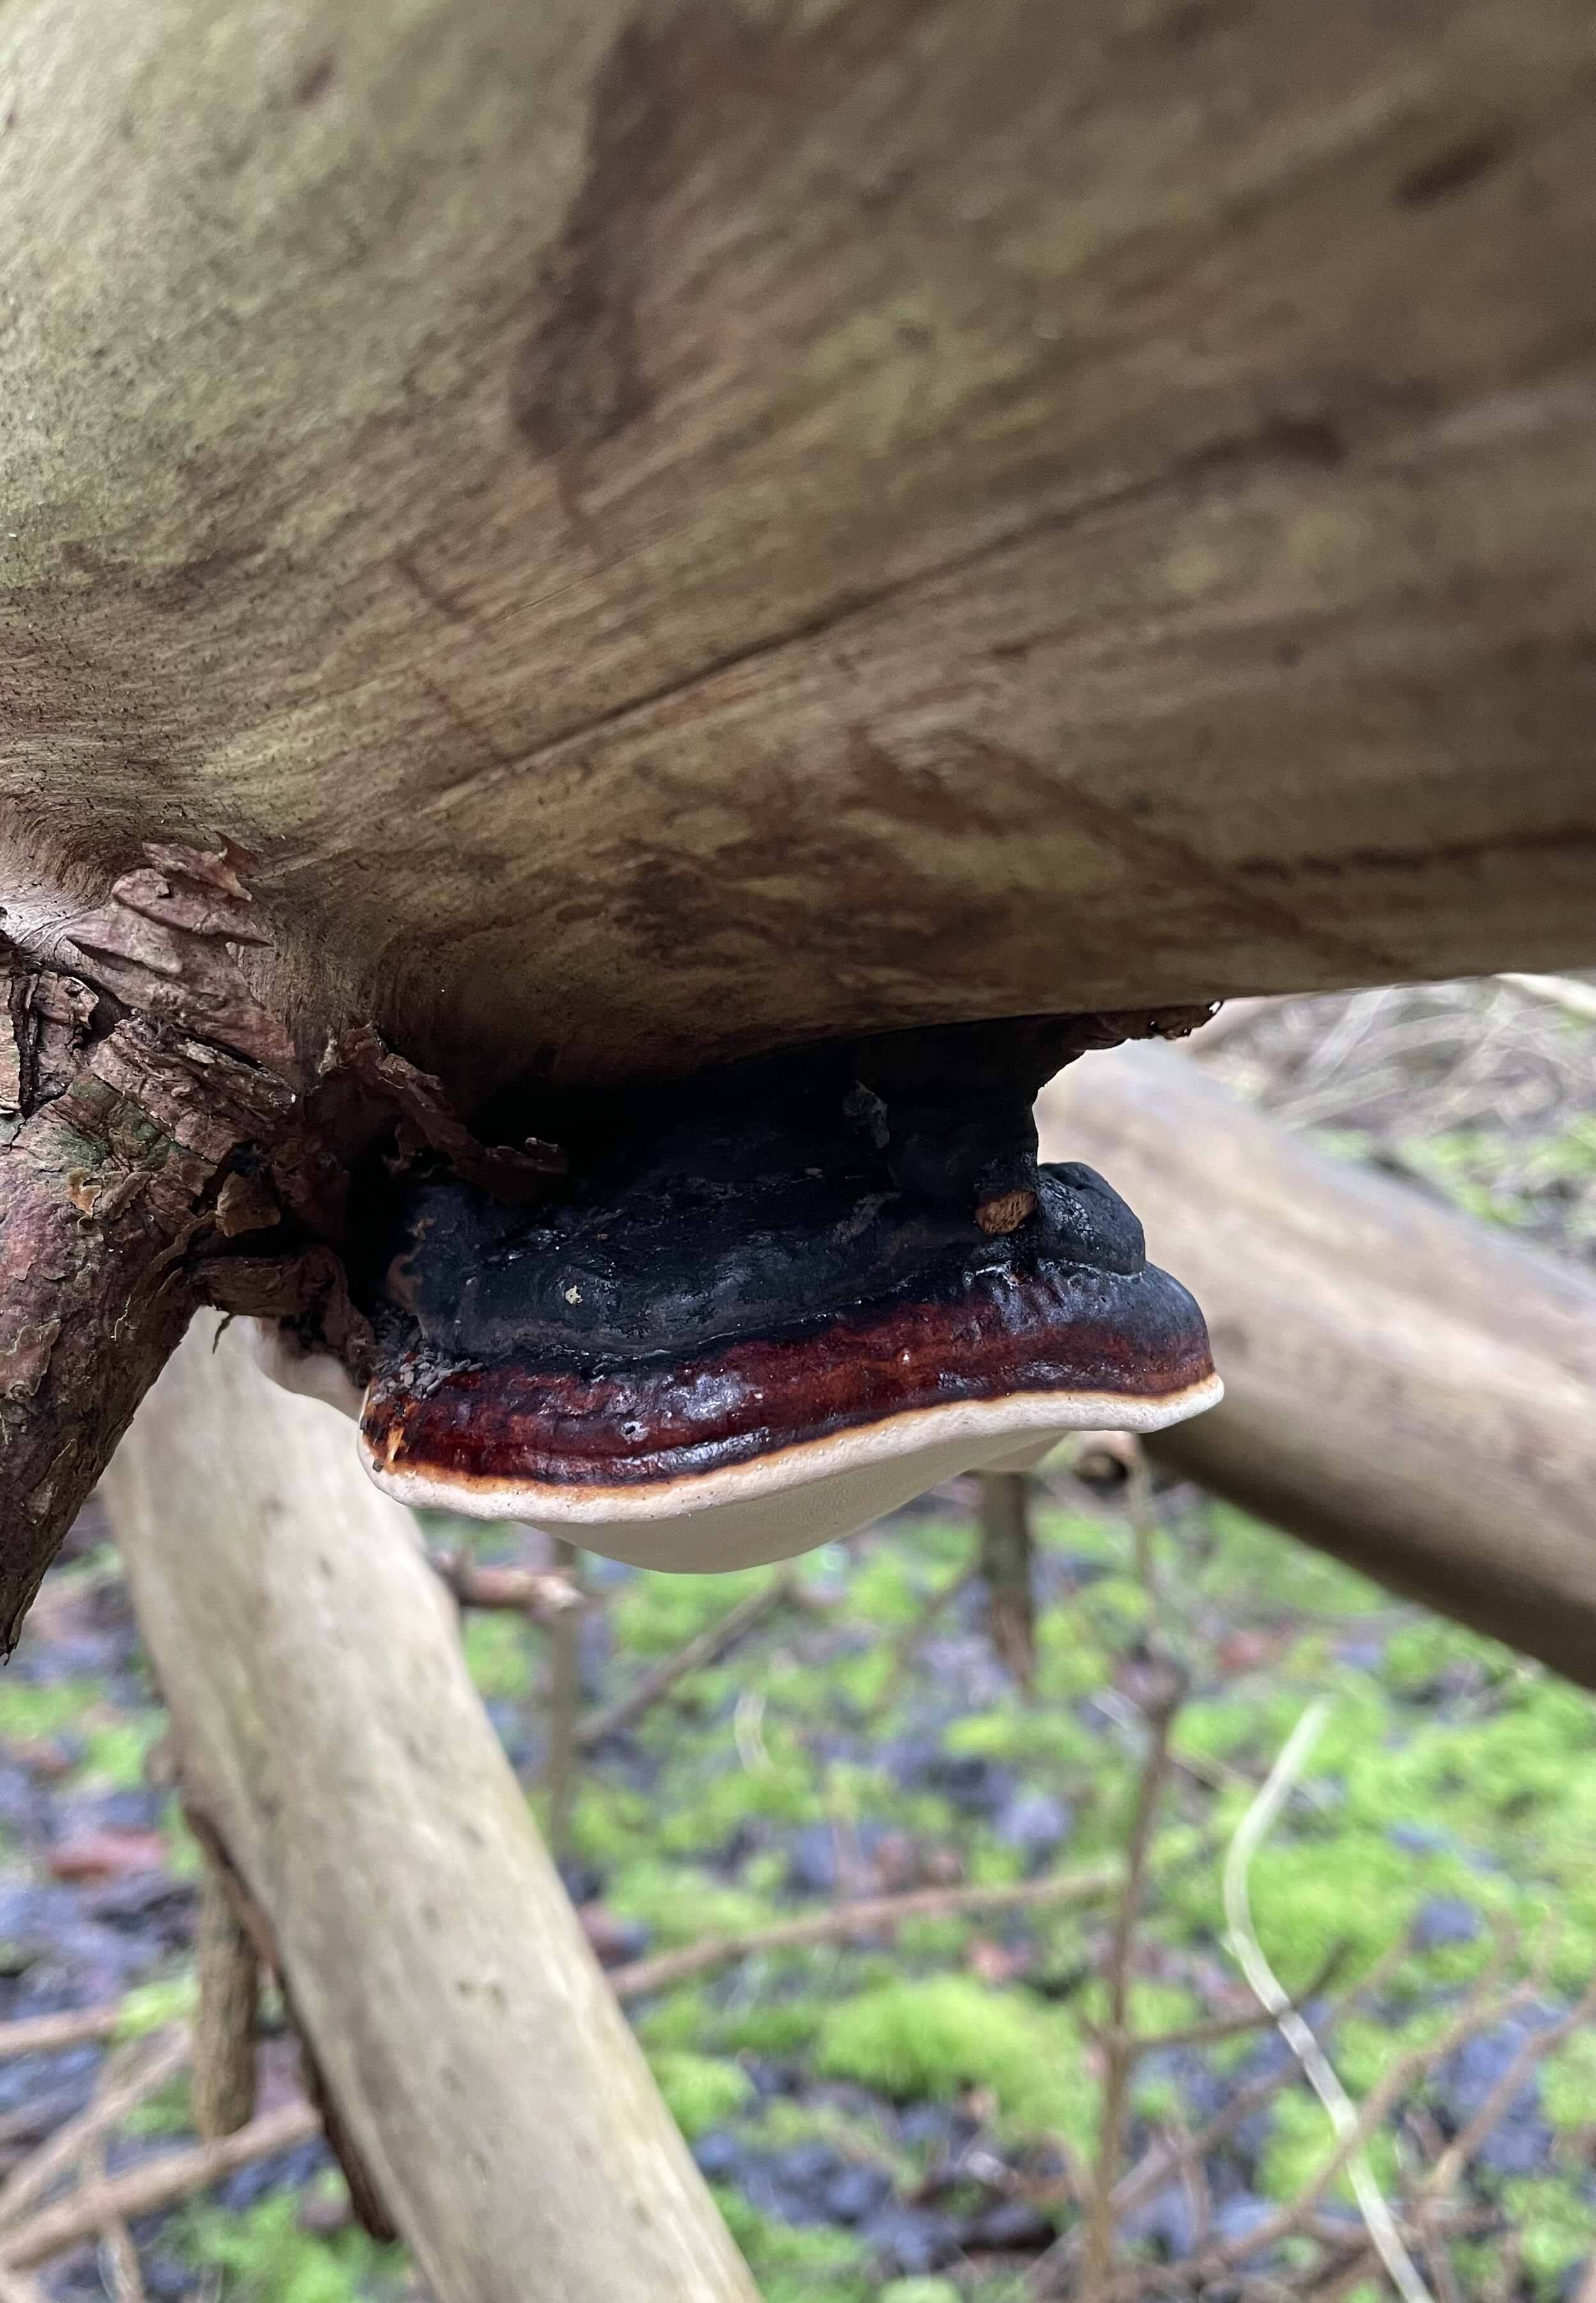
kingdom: Fungi
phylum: Basidiomycota
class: Agaricomycetes
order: Polyporales
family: Fomitopsidaceae
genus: Fomitopsis
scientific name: Fomitopsis pinicola
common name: randbæltet hovporesvamp
